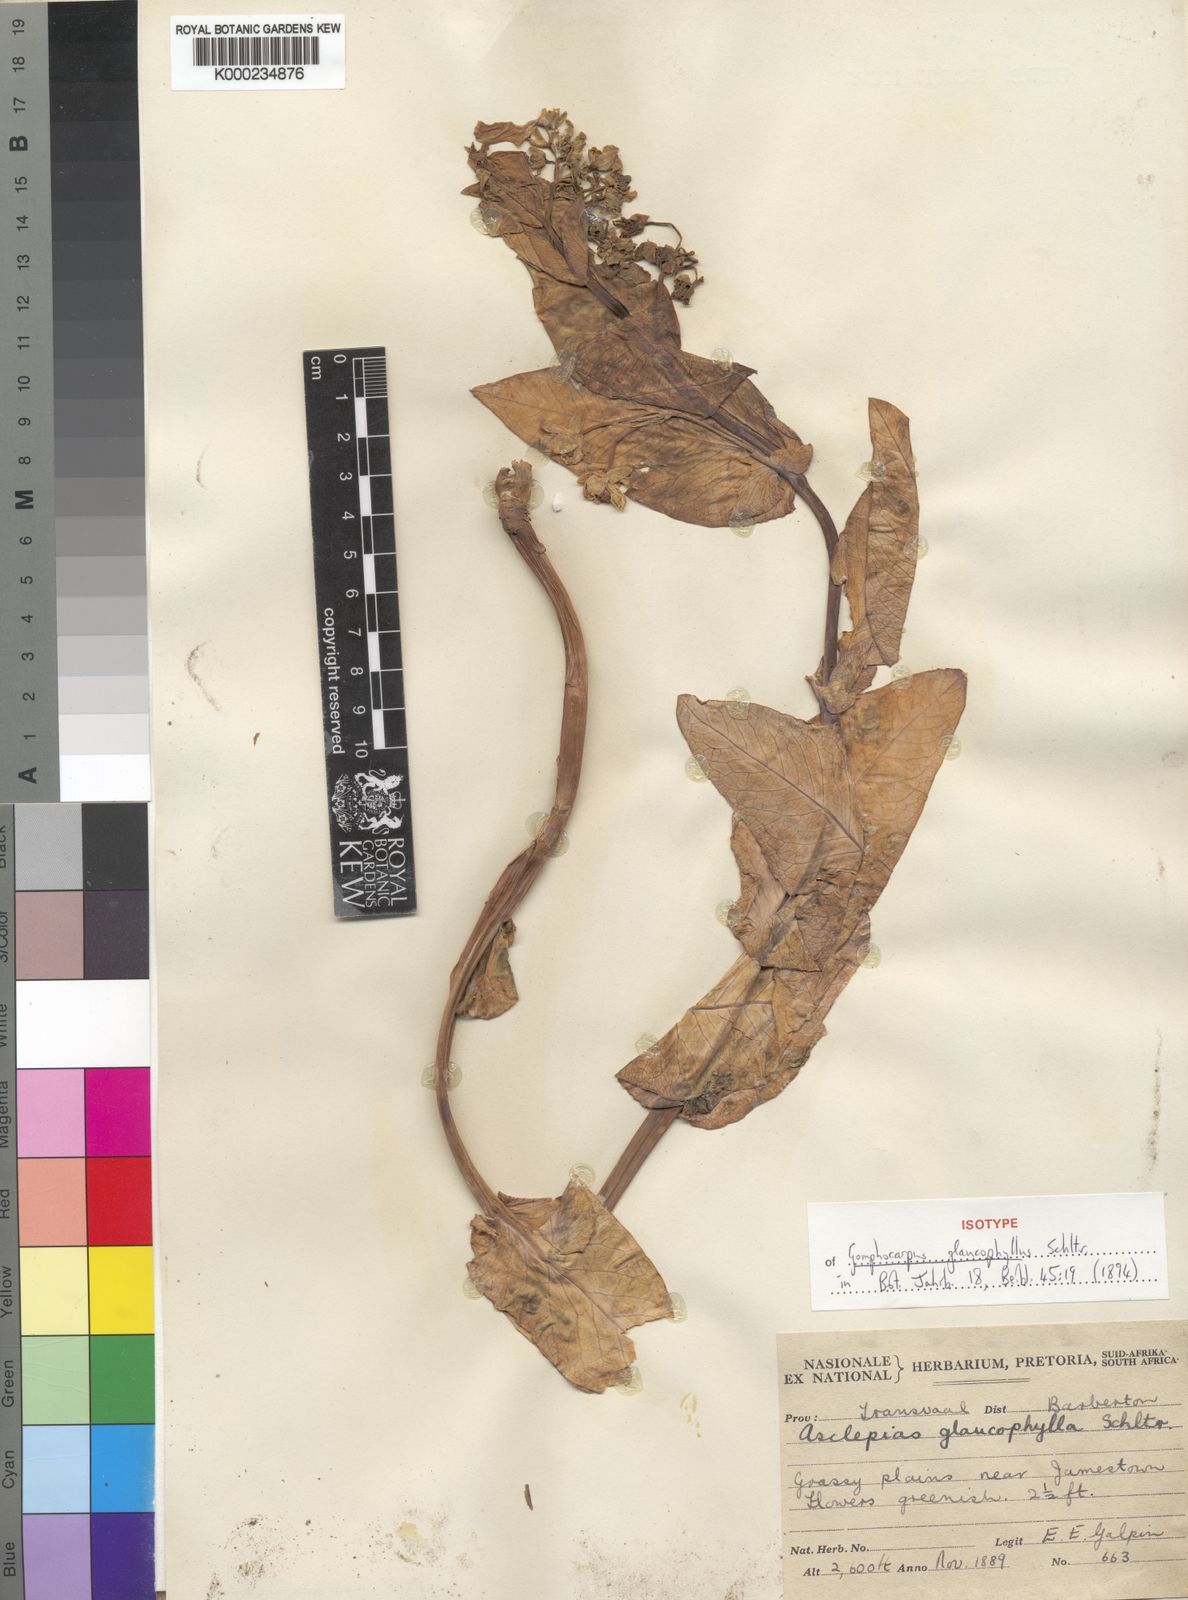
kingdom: Plantae
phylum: Tracheophyta
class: Magnoliopsida
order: Gentianales
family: Apocynaceae
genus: Gomphocarpus
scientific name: Gomphocarpus glaucophyllus
